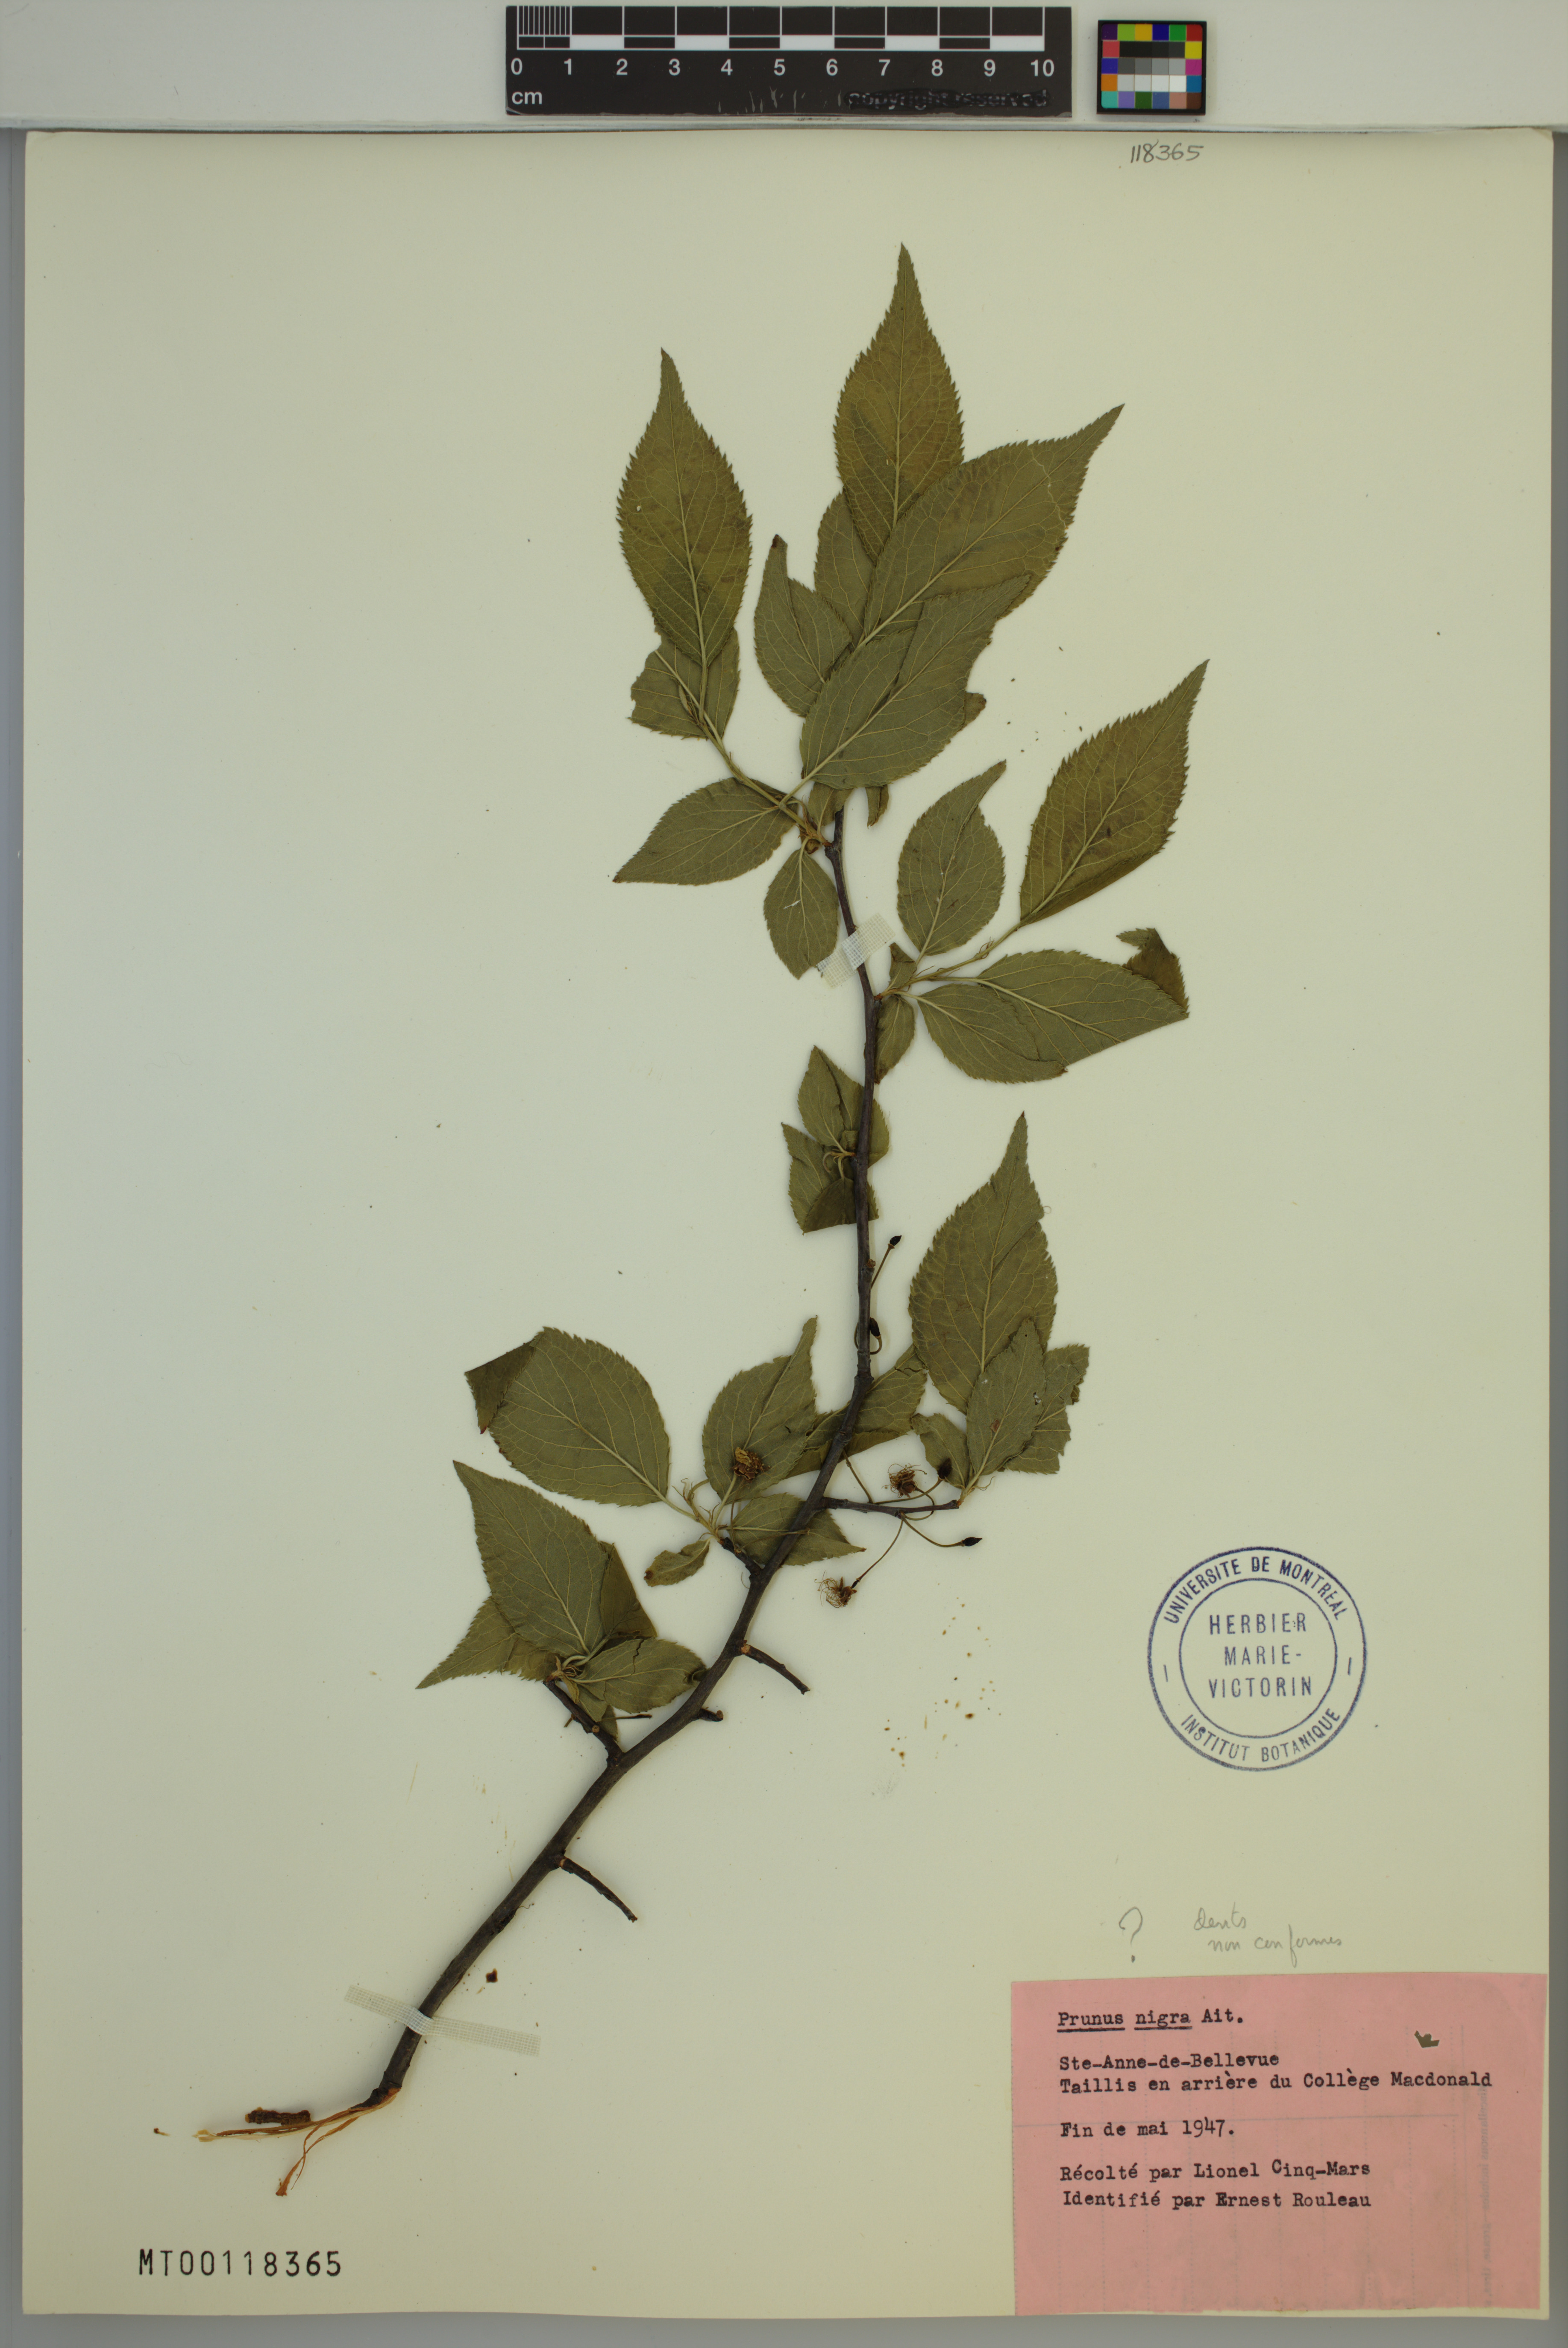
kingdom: Plantae
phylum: Tracheophyta
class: Magnoliopsida
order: Rosales
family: Rosaceae
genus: Prunus
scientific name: Prunus nigra
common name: Black plum
